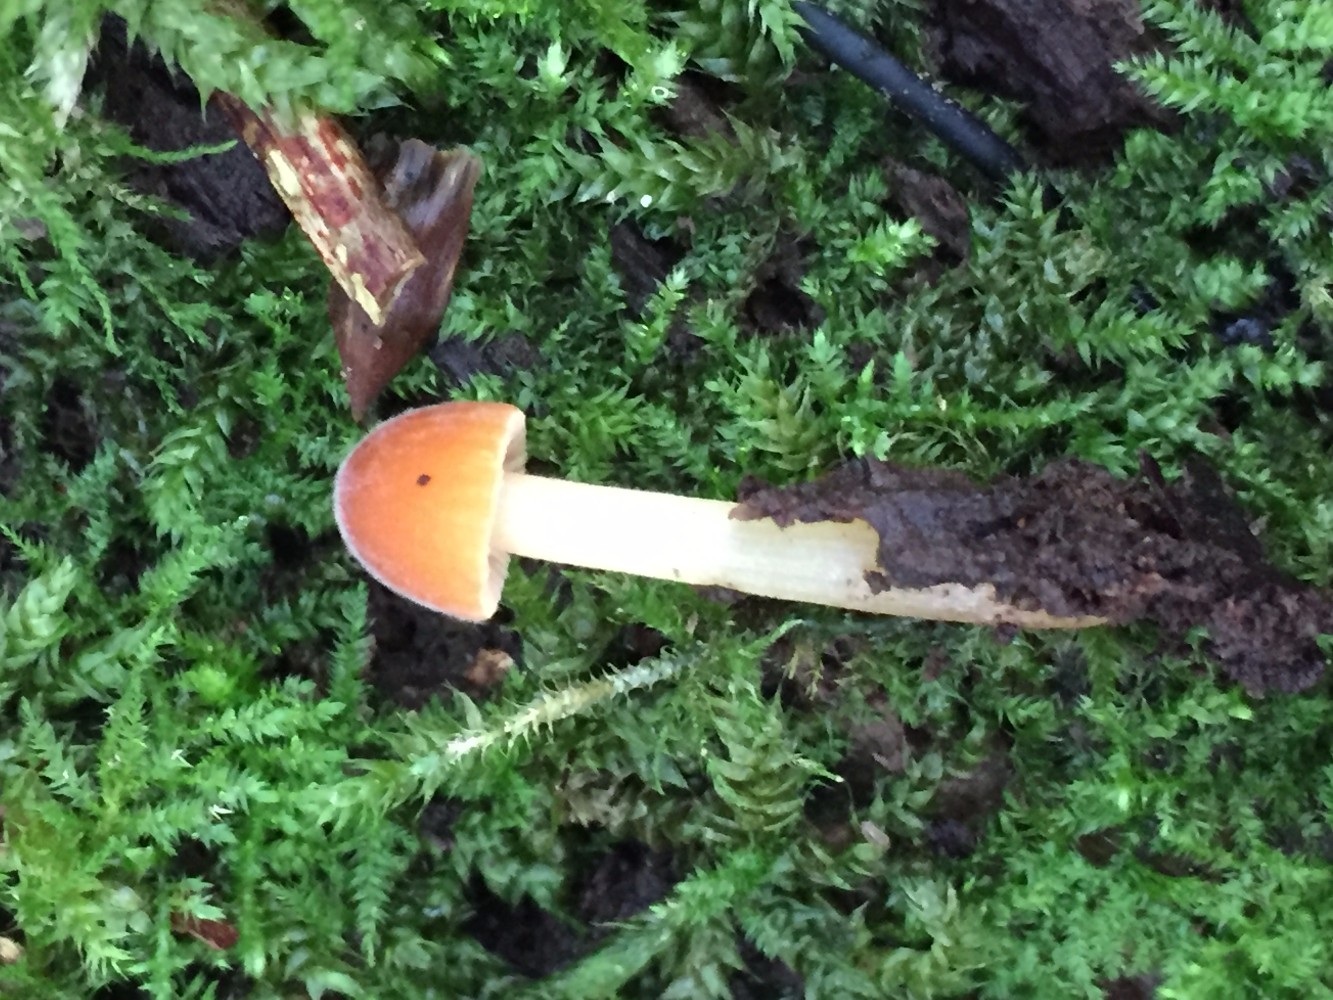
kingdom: Fungi
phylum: Basidiomycota
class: Agaricomycetes
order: Agaricales
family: Bolbitiaceae
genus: Conocybe
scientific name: Conocybe subpubescens
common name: krat-keglehat
